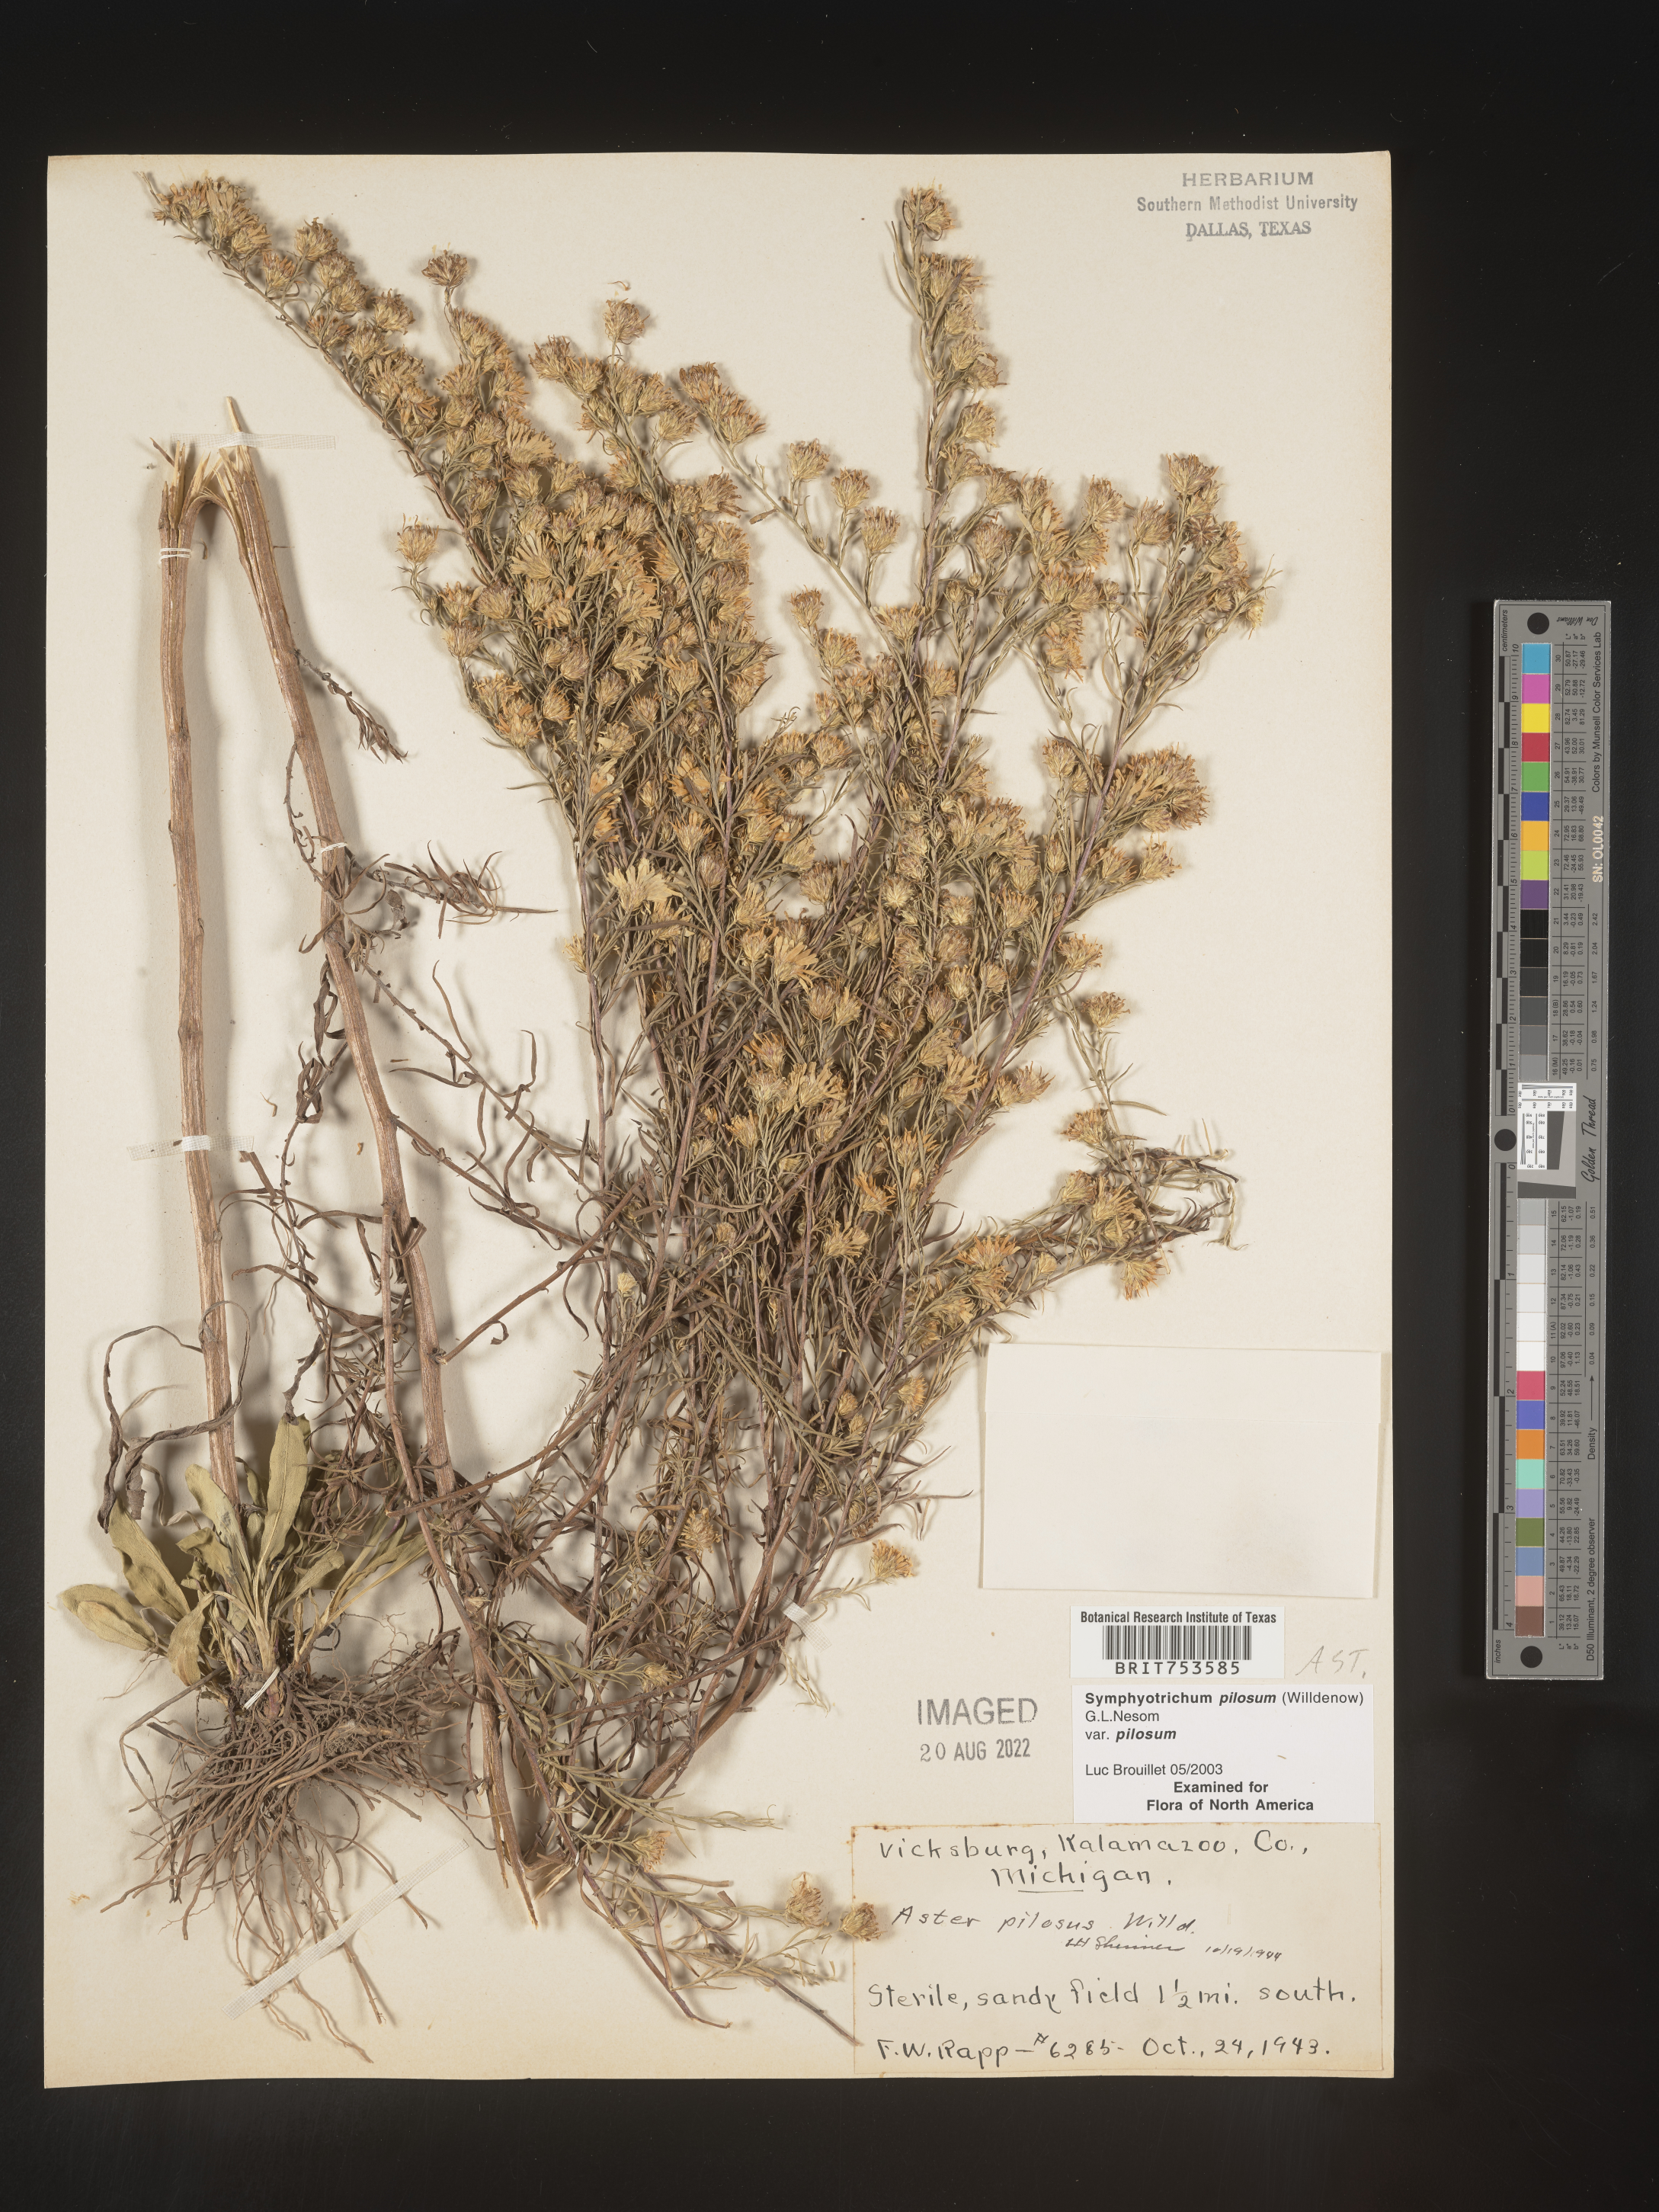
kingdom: Plantae
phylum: Tracheophyta
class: Magnoliopsida
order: Asterales
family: Asteraceae
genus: Symphyotrichum
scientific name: Symphyotrichum pilosum
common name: Awl aster
